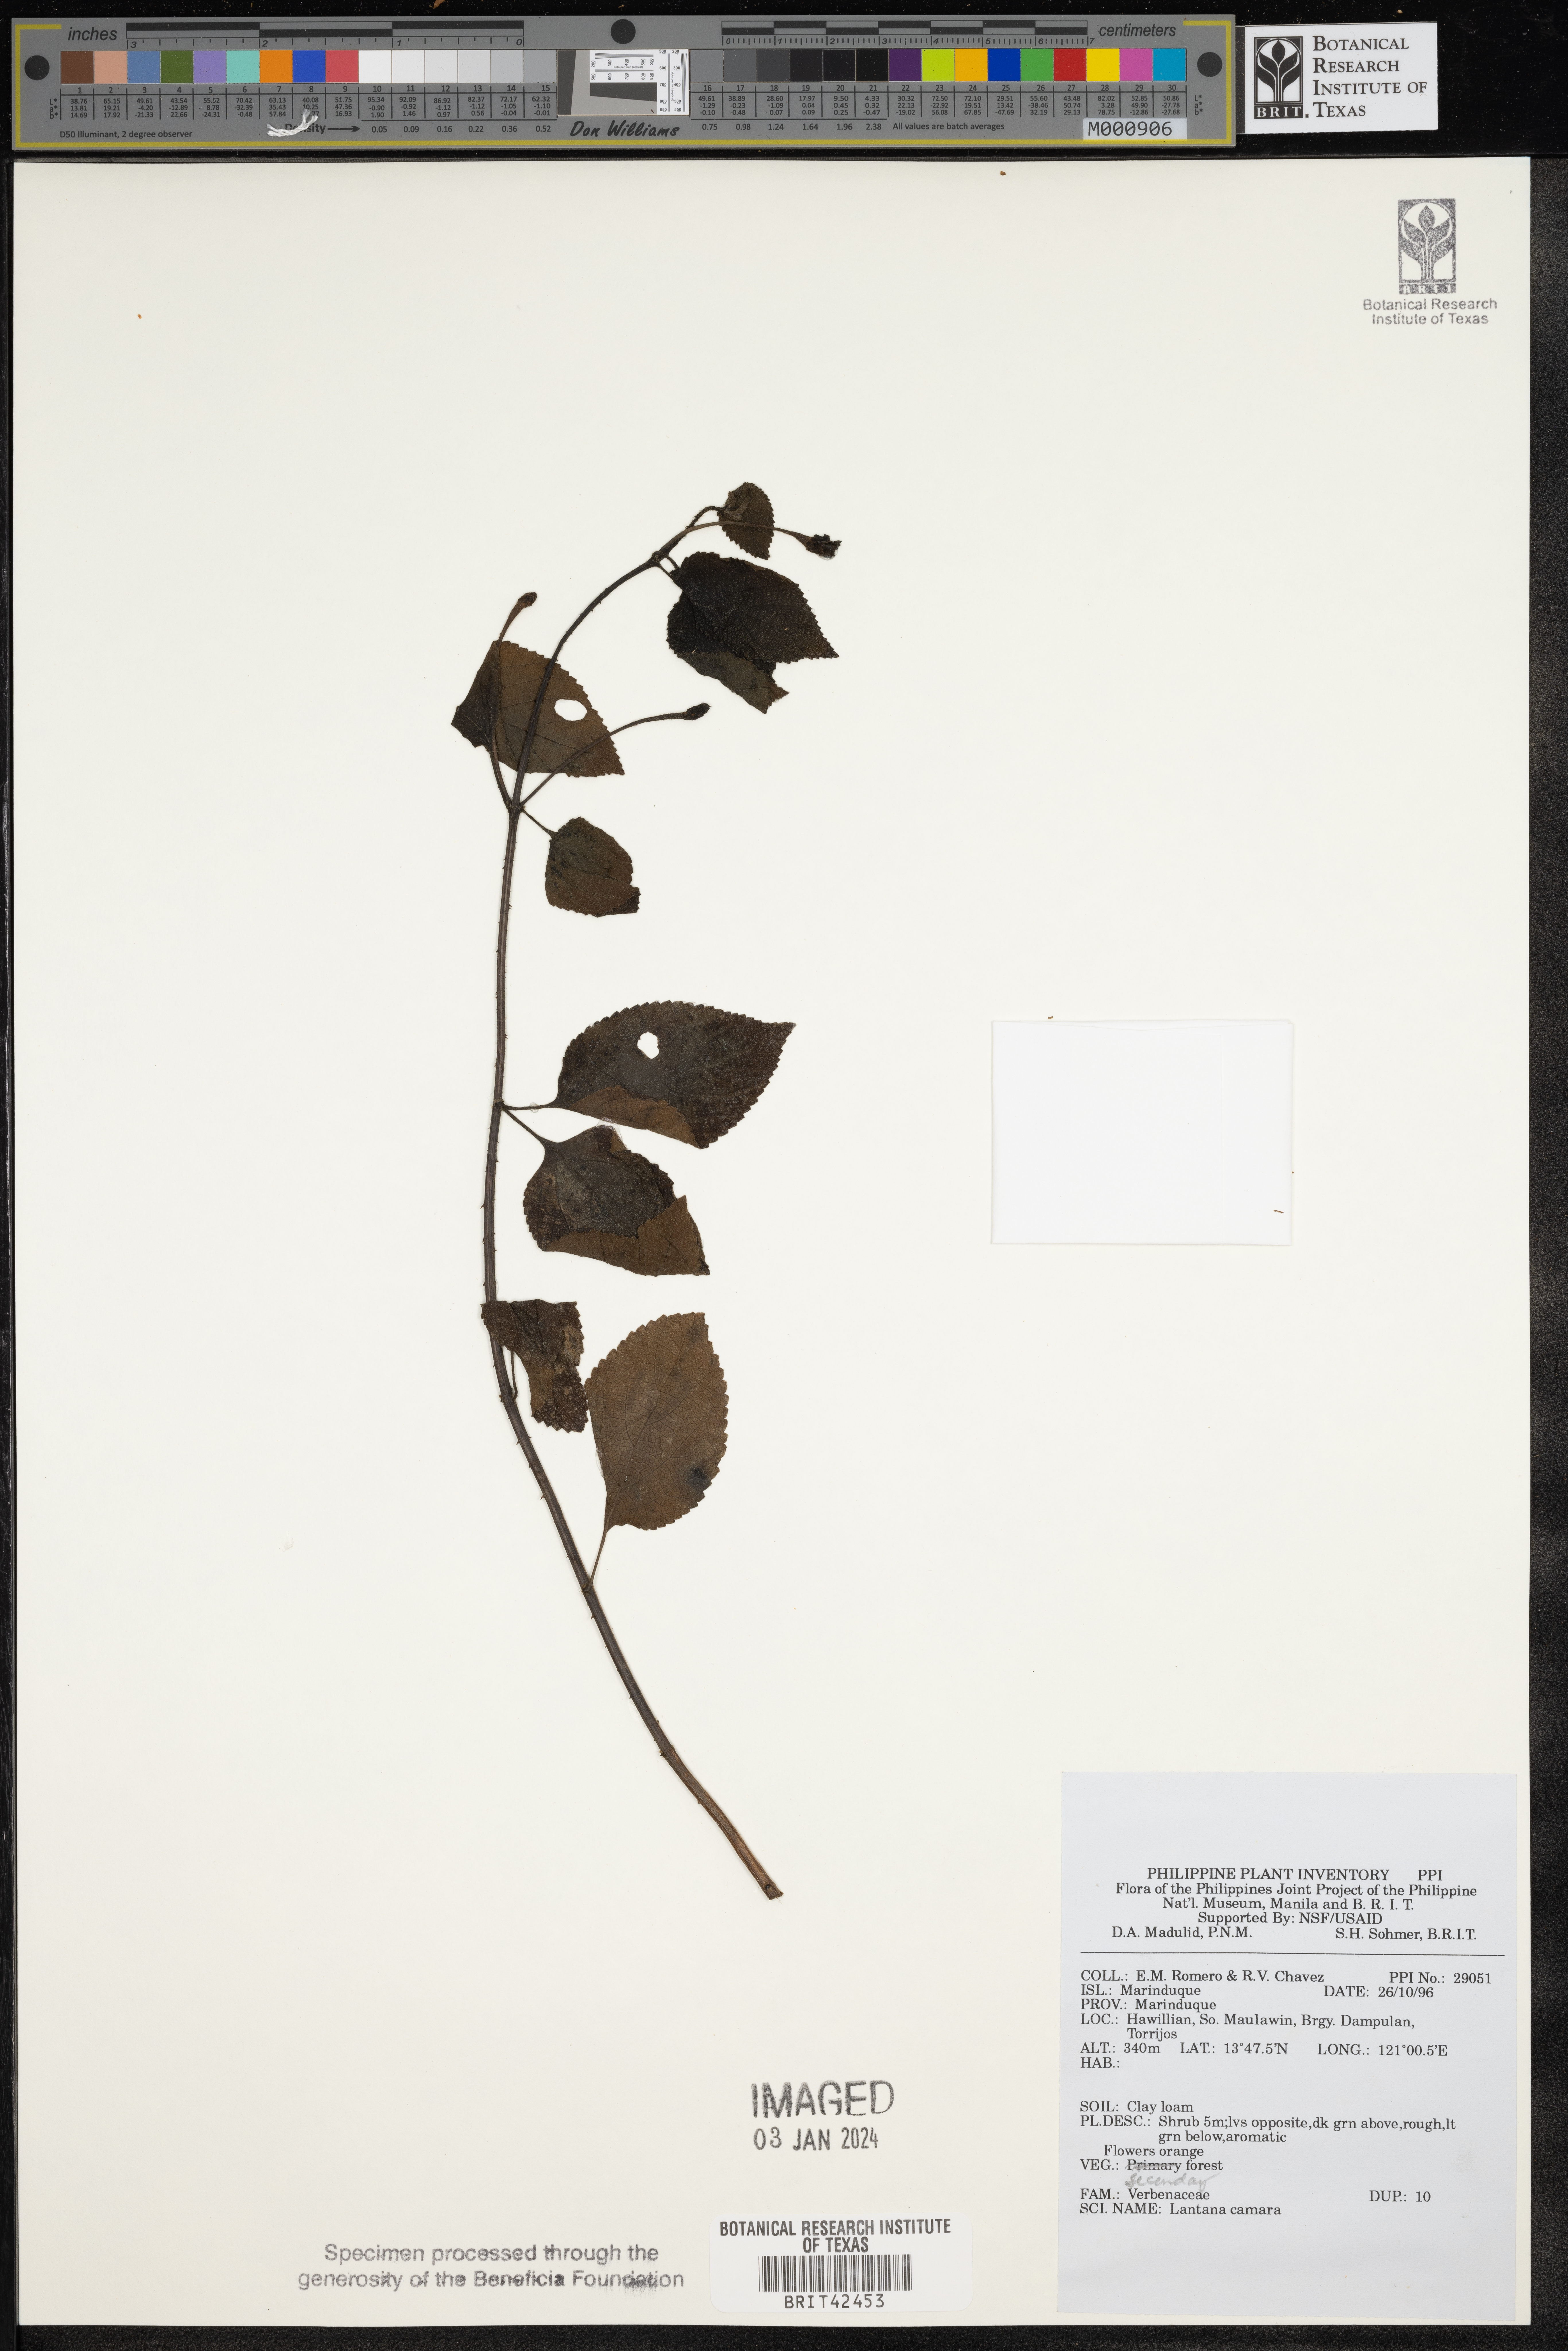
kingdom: Plantae
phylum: Tracheophyta
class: Magnoliopsida
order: Lamiales
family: Verbenaceae
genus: Lantana
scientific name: Lantana camara
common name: Lantana
